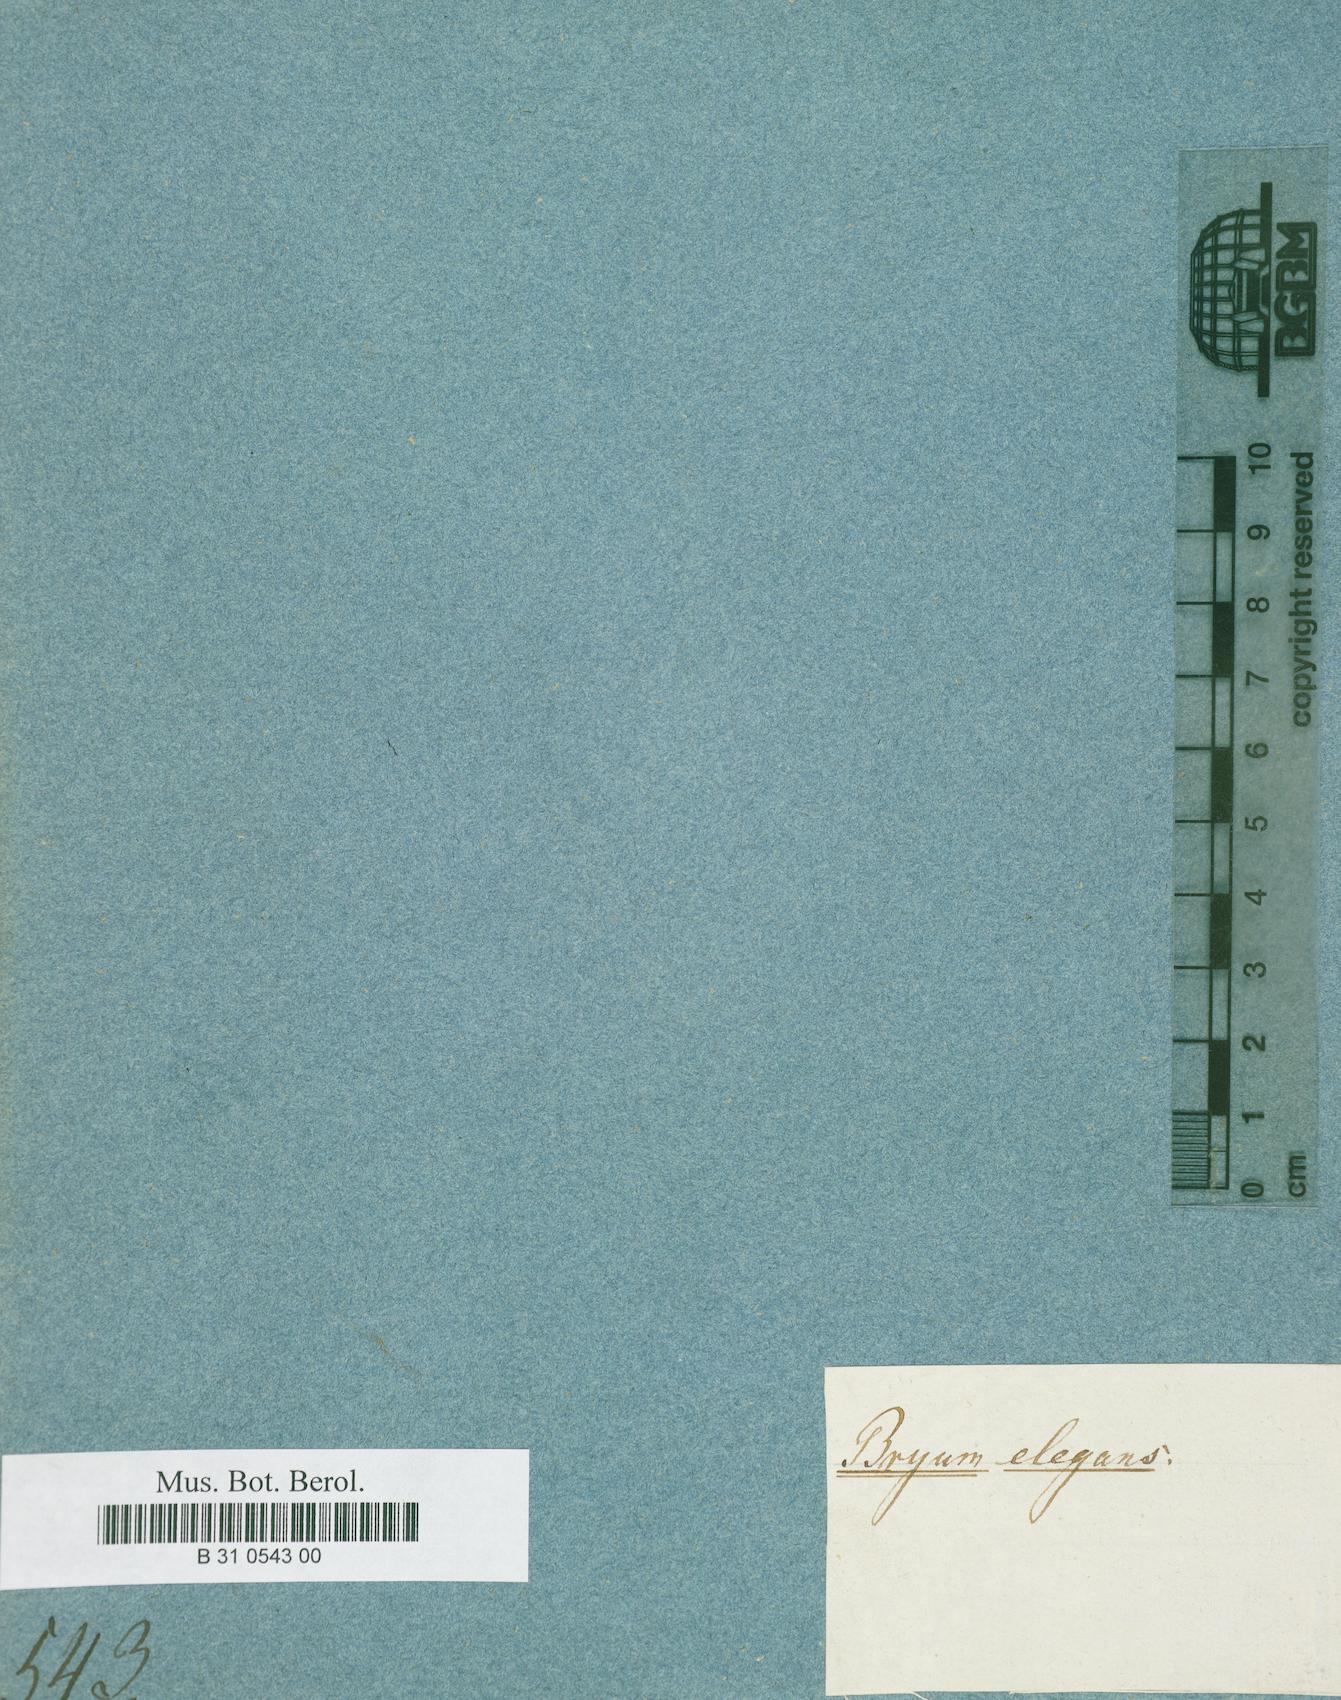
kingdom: Plantae
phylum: Bryophyta
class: Bryopsida
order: Bryales
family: Bryaceae
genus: Bryum
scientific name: Bryum elegans
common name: Elegant bryum
